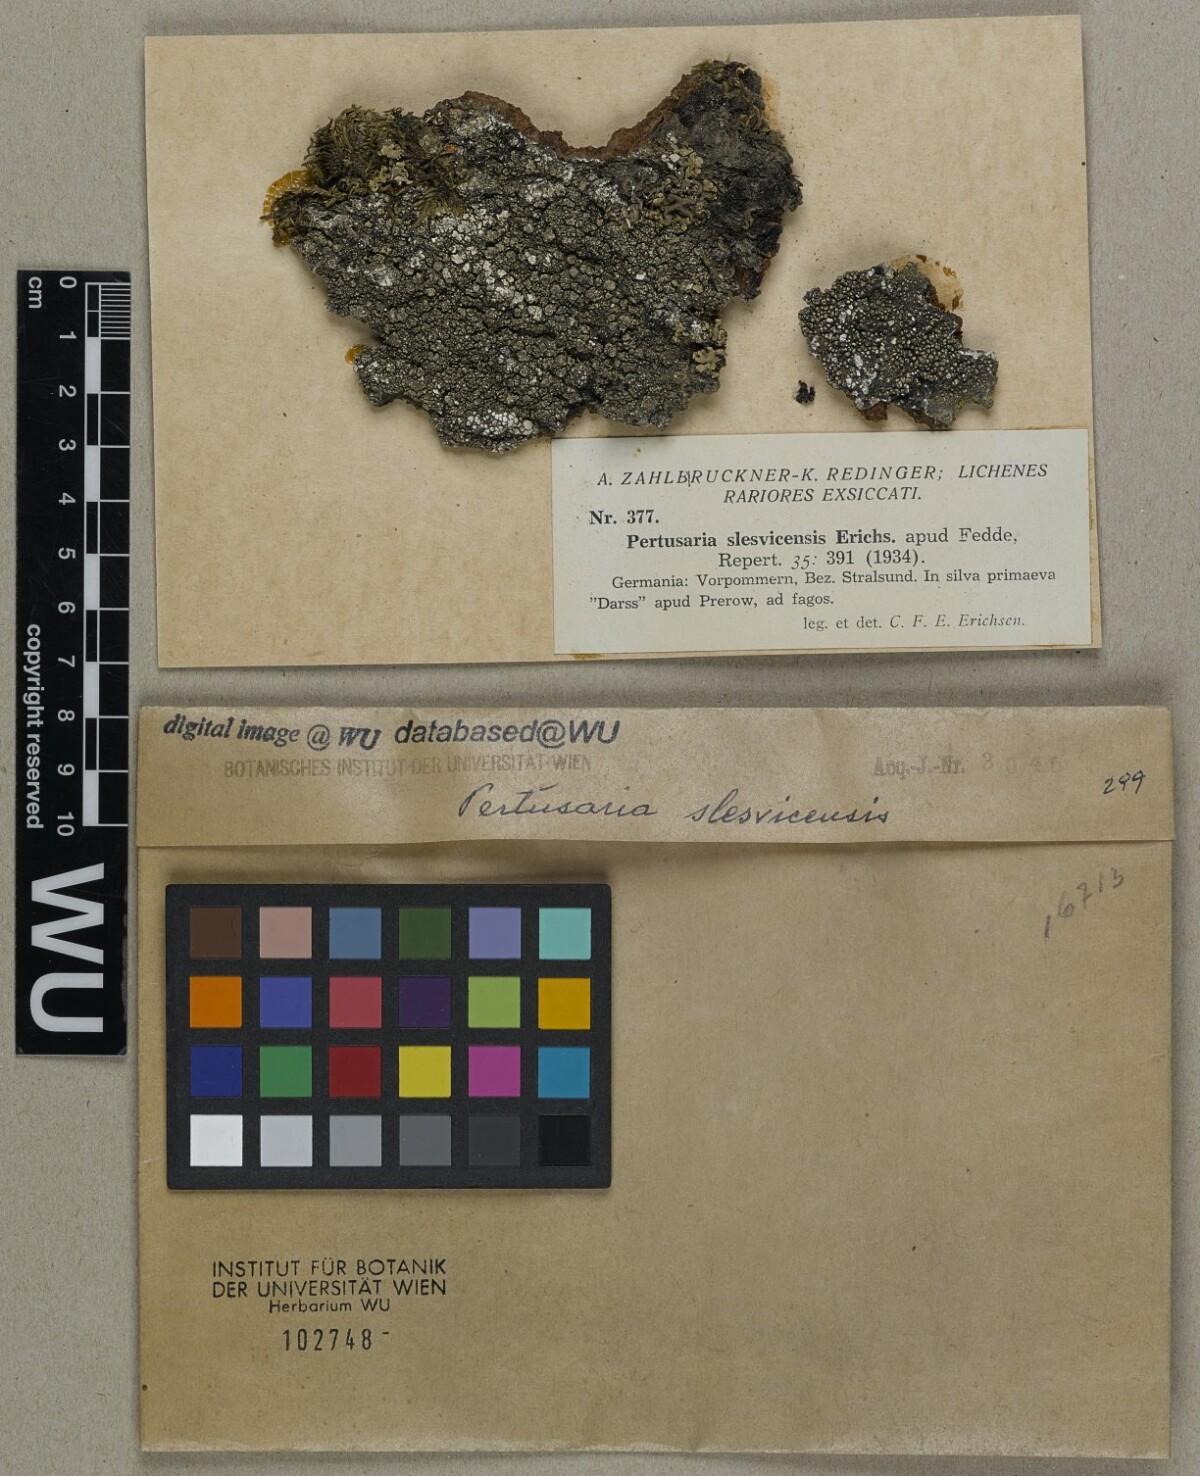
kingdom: Fungi
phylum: Ascomycota
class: Lecanoromycetes
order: Pertusariales
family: Pertusariaceae
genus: Lepra
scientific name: Lepra slesvicensis
